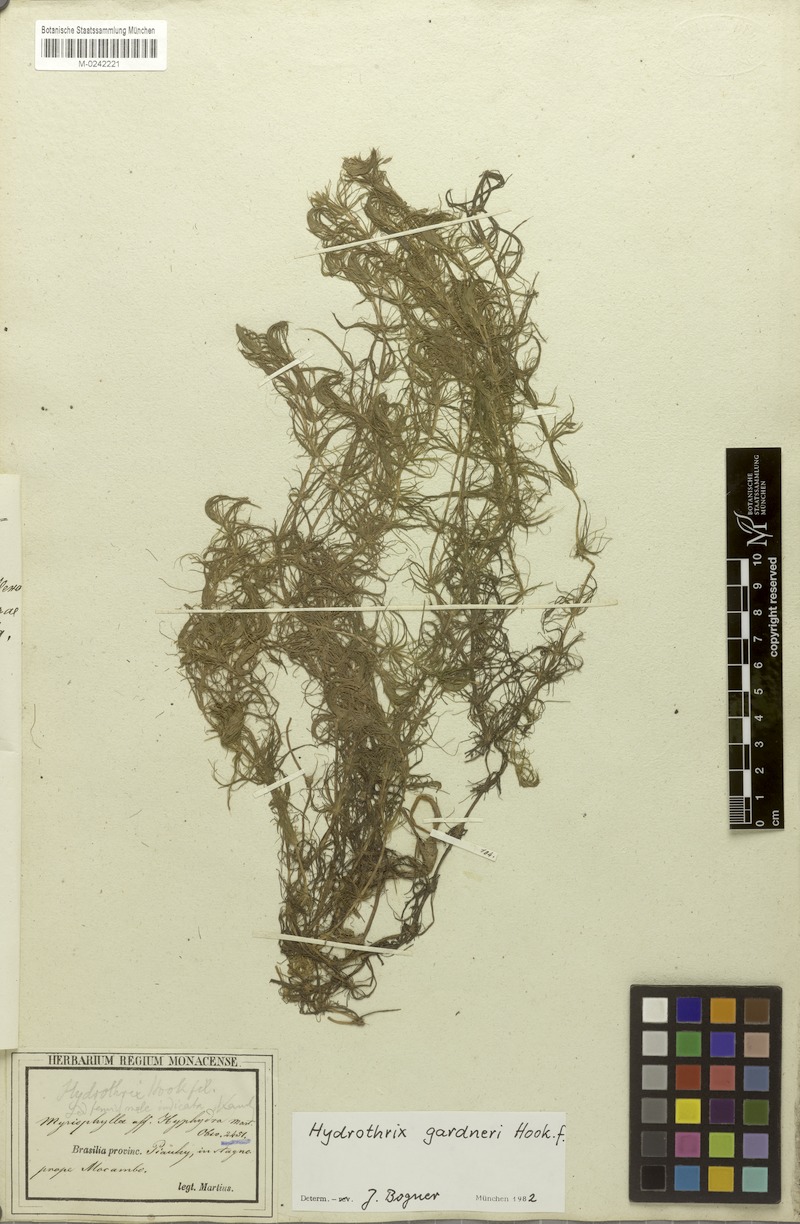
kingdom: Plantae
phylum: Tracheophyta
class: Liliopsida
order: Commelinales
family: Pontederiaceae
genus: Heteranthera
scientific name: Heteranthera gardneri
